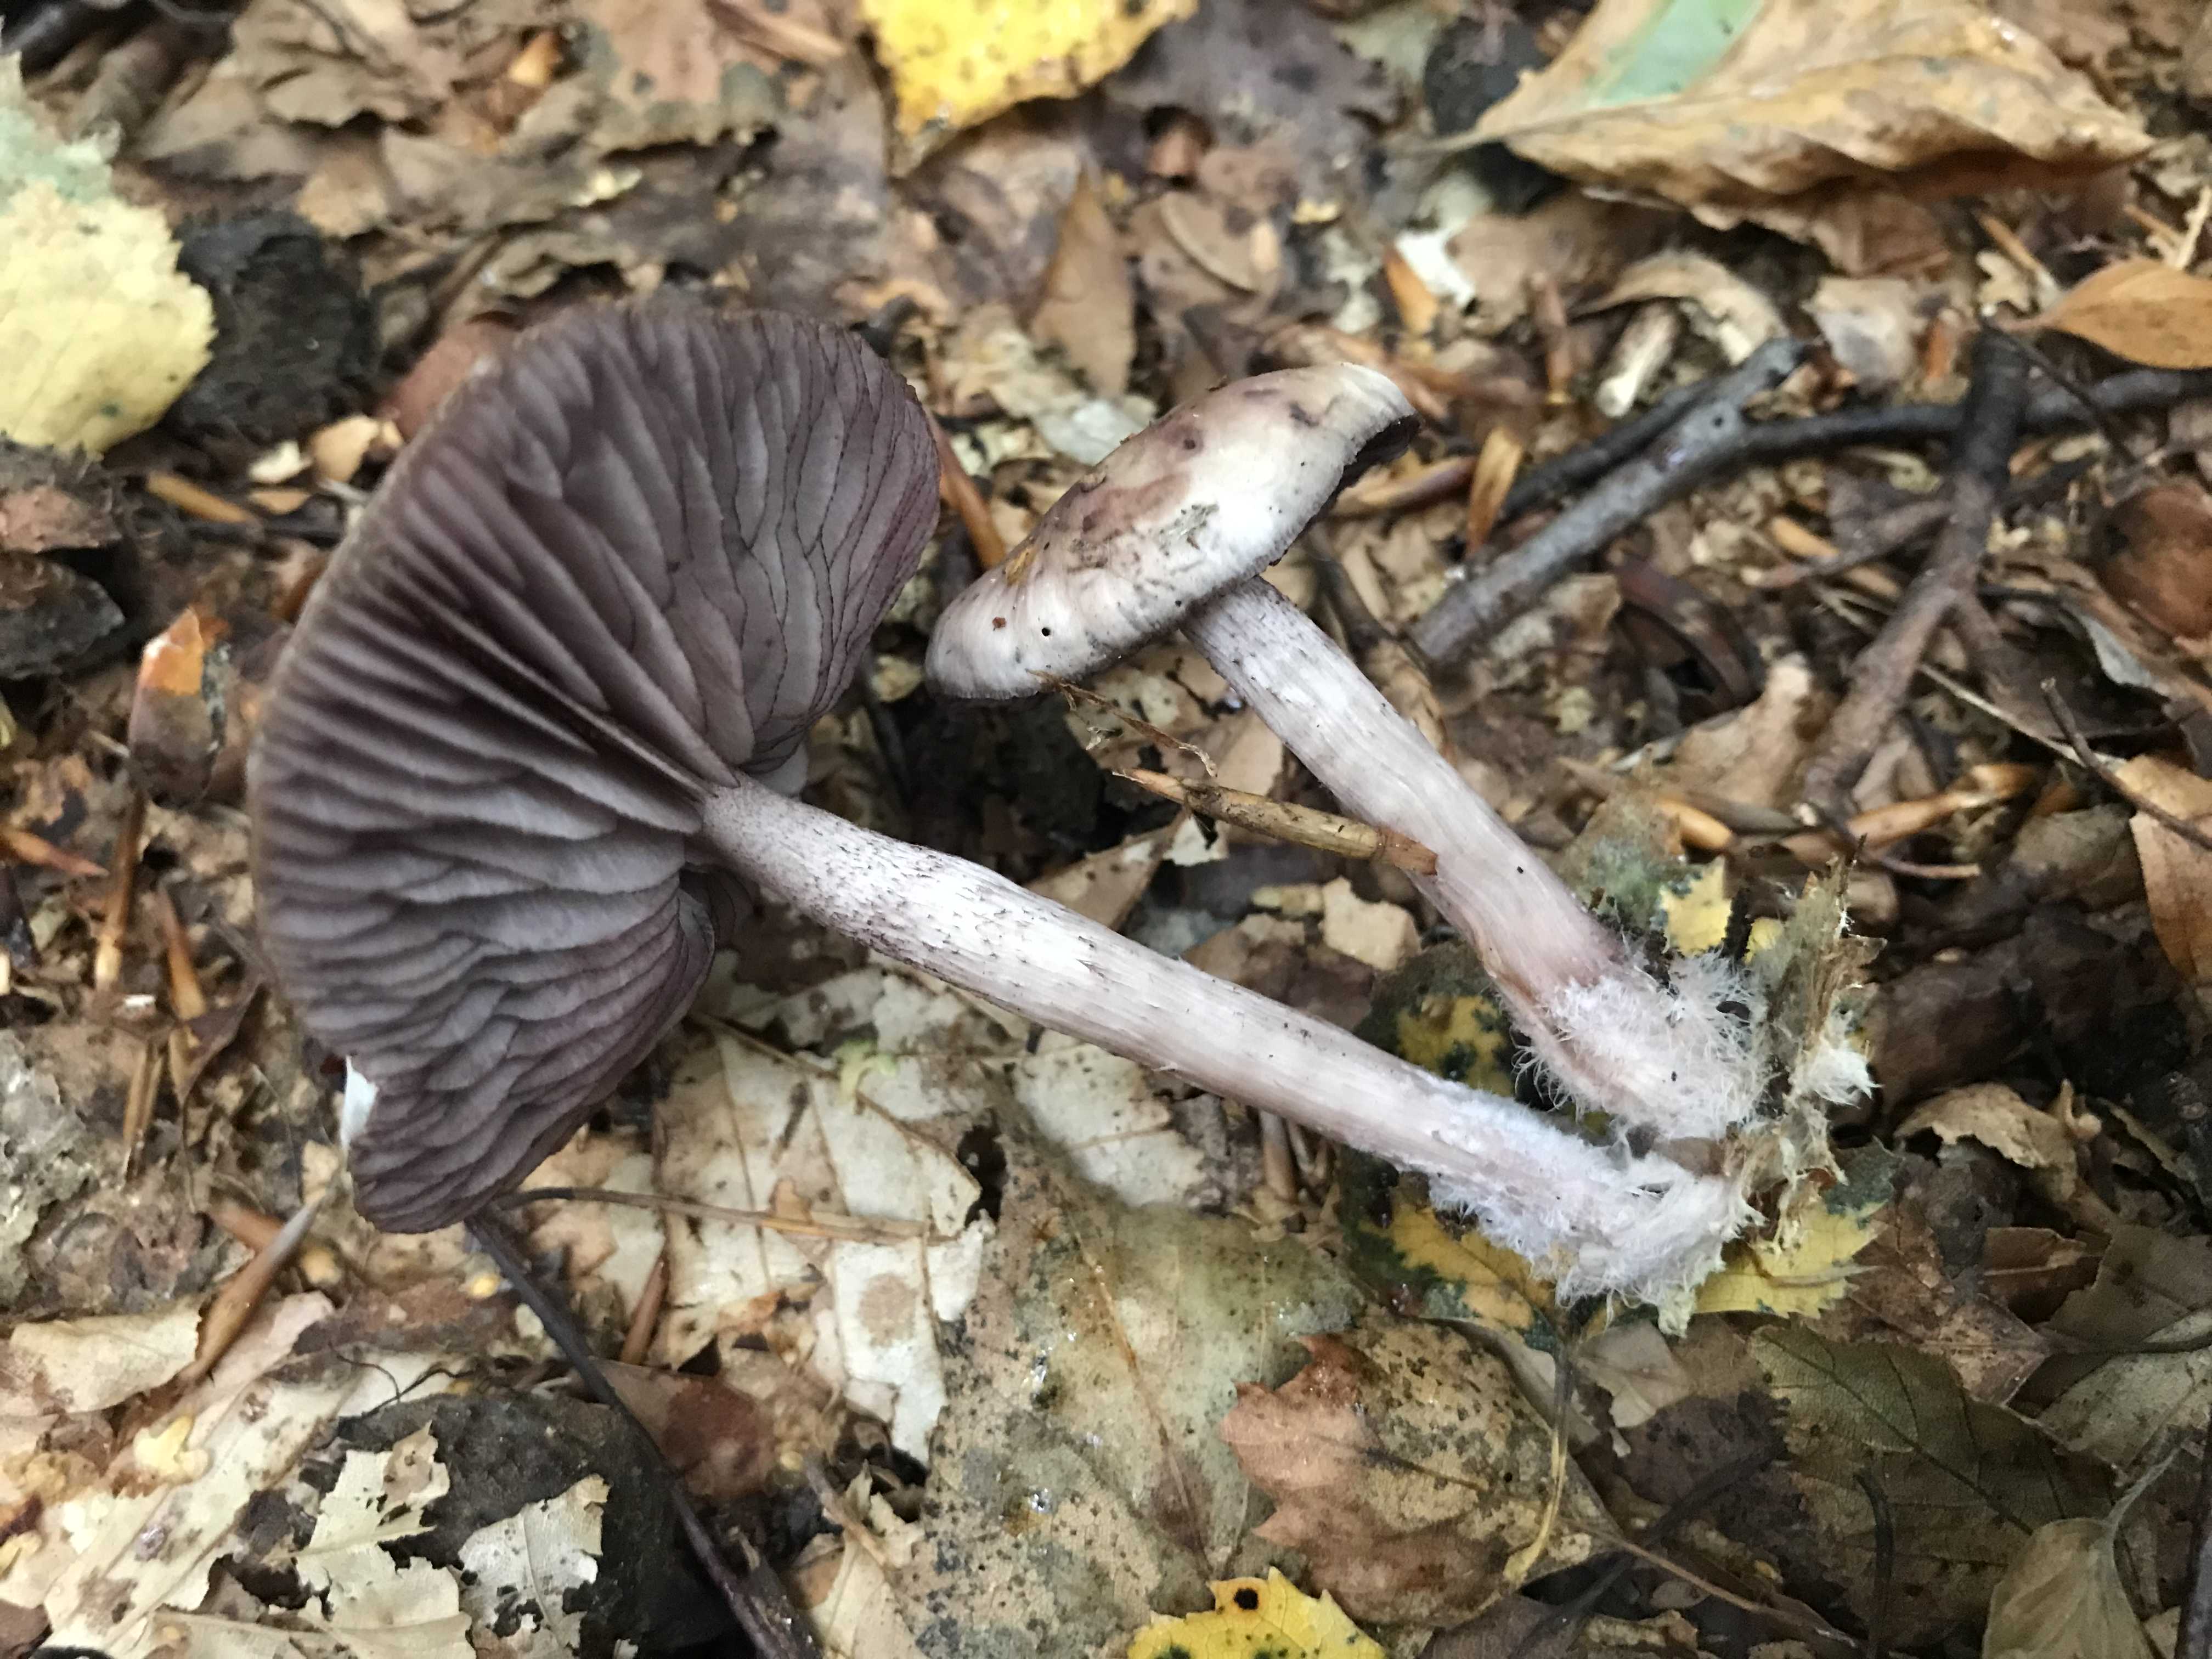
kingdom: Fungi
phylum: Basidiomycota
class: Agaricomycetes
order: Agaricales
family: Mycenaceae
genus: Mycena
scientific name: Mycena pelianthina
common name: mørkbladet huesvamp
